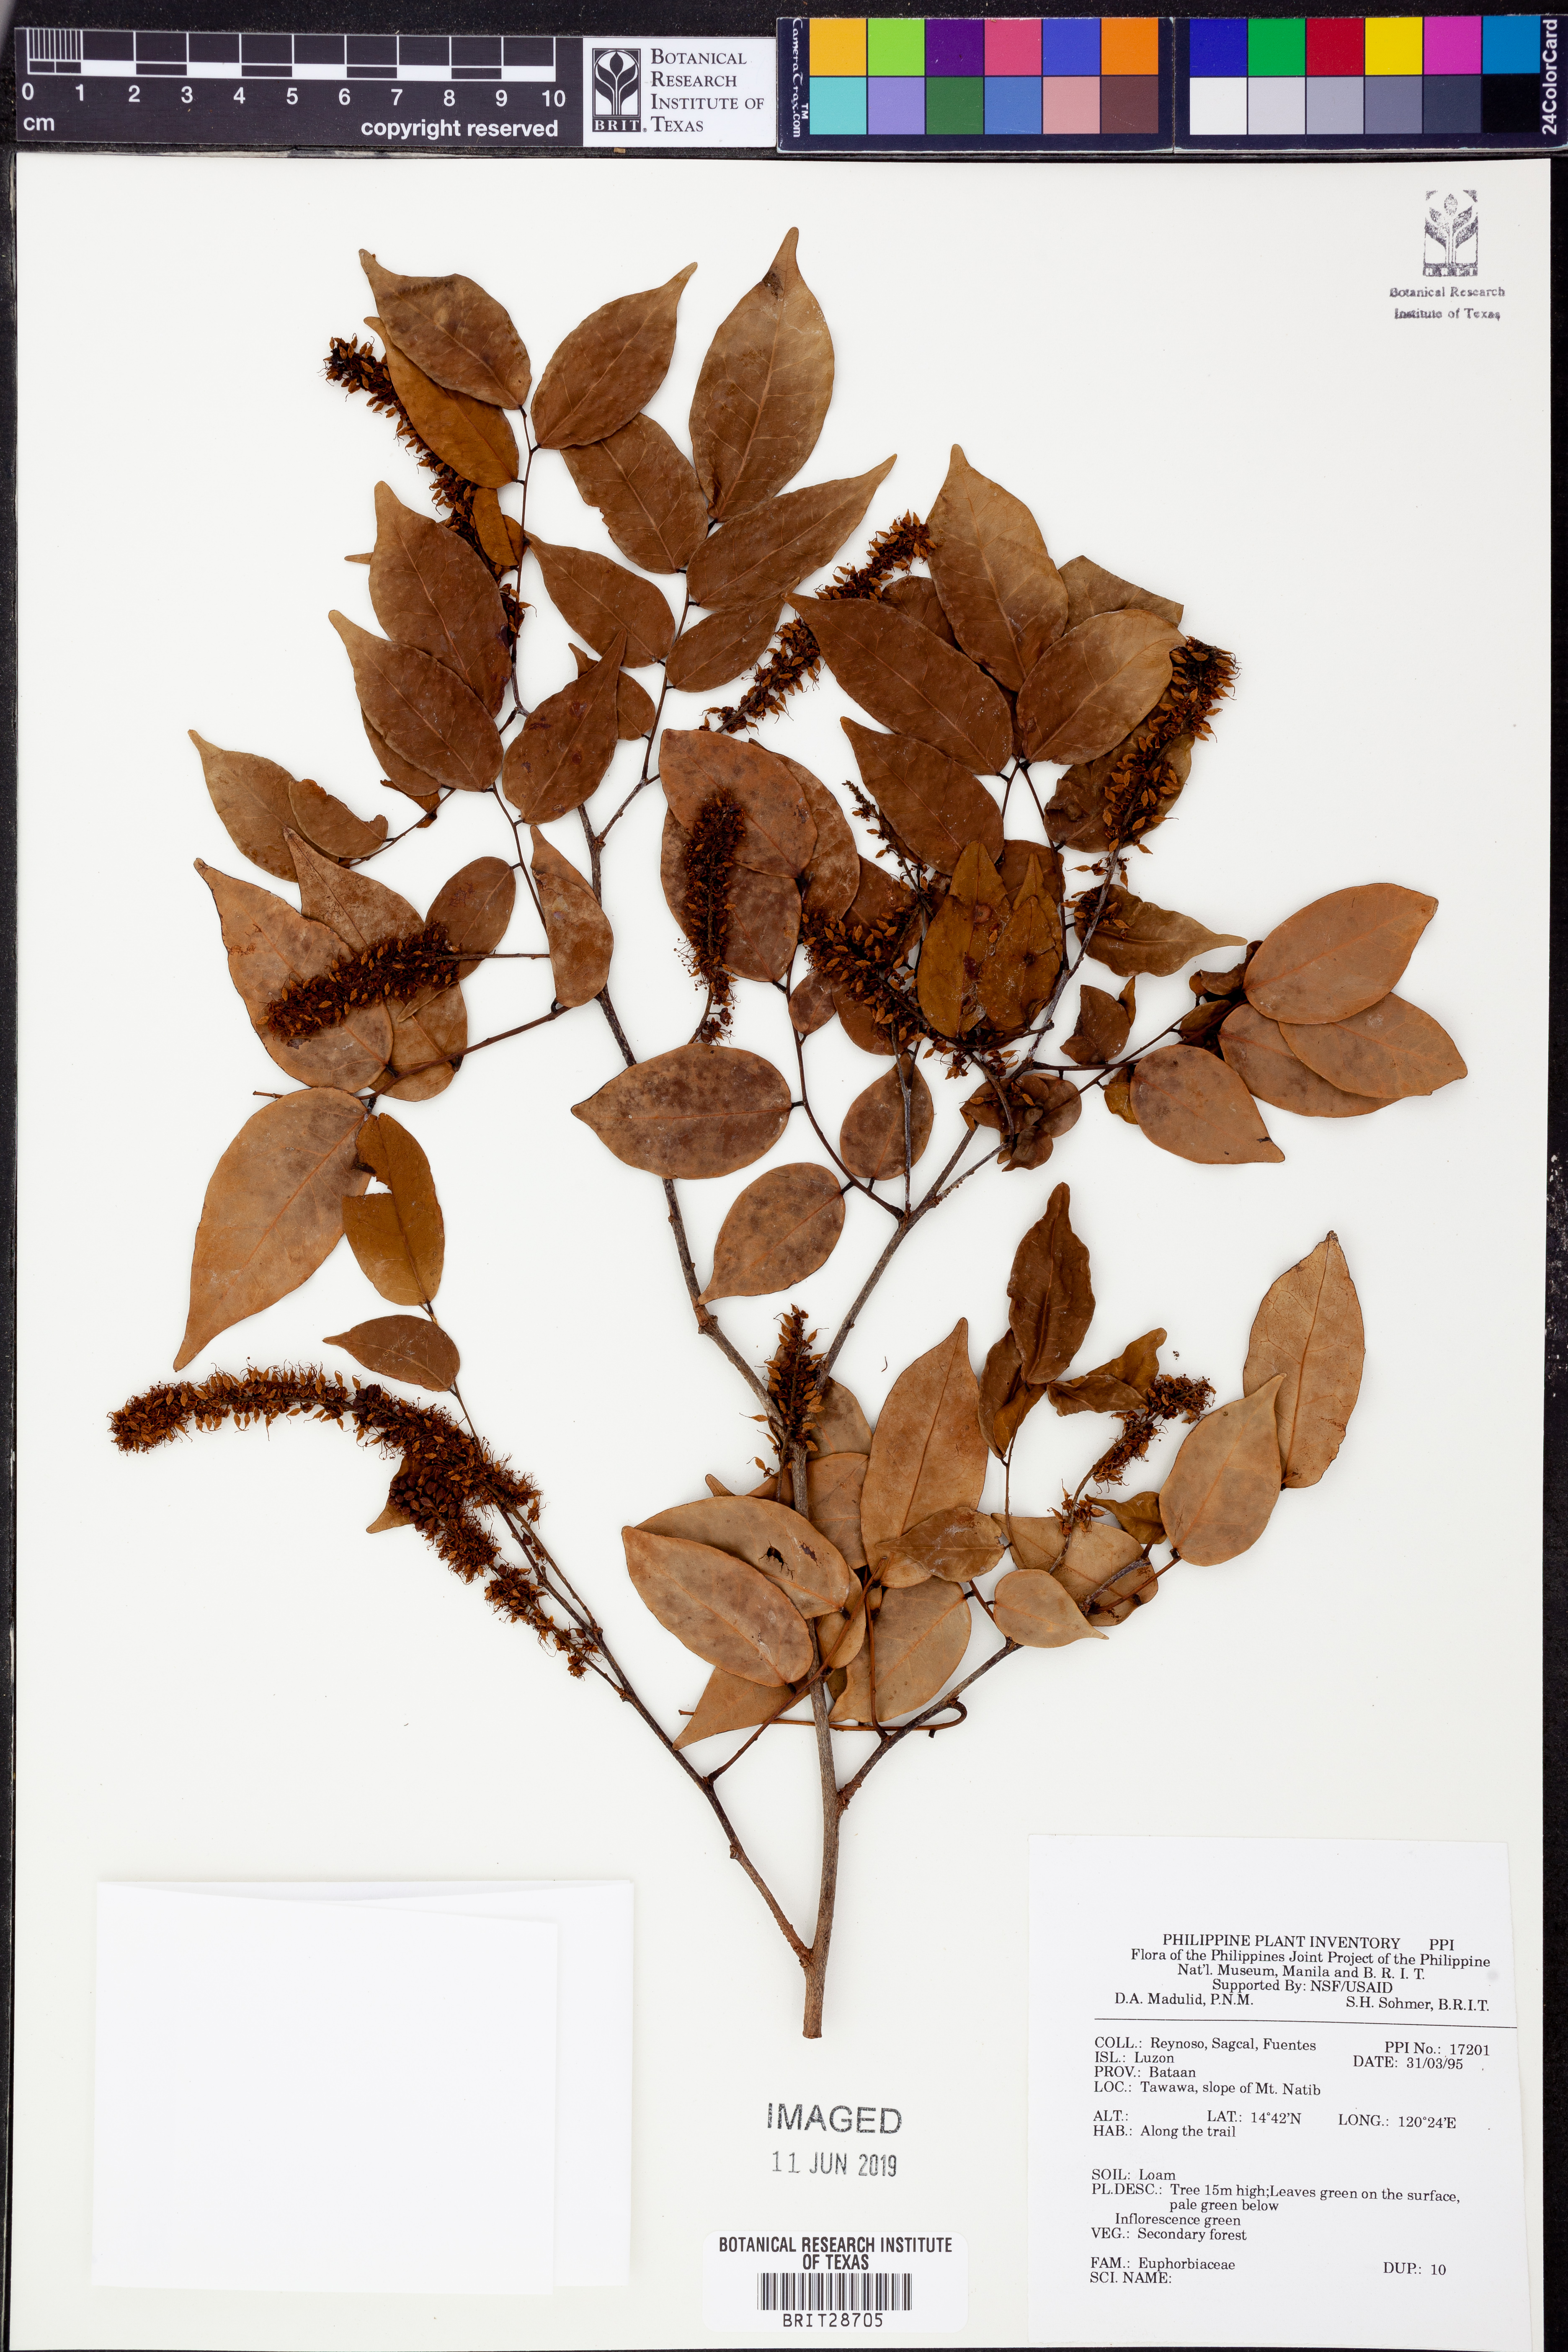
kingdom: Plantae
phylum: Tracheophyta
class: Magnoliopsida
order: Malpighiales
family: Euphorbiaceae
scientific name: Euphorbiaceae
